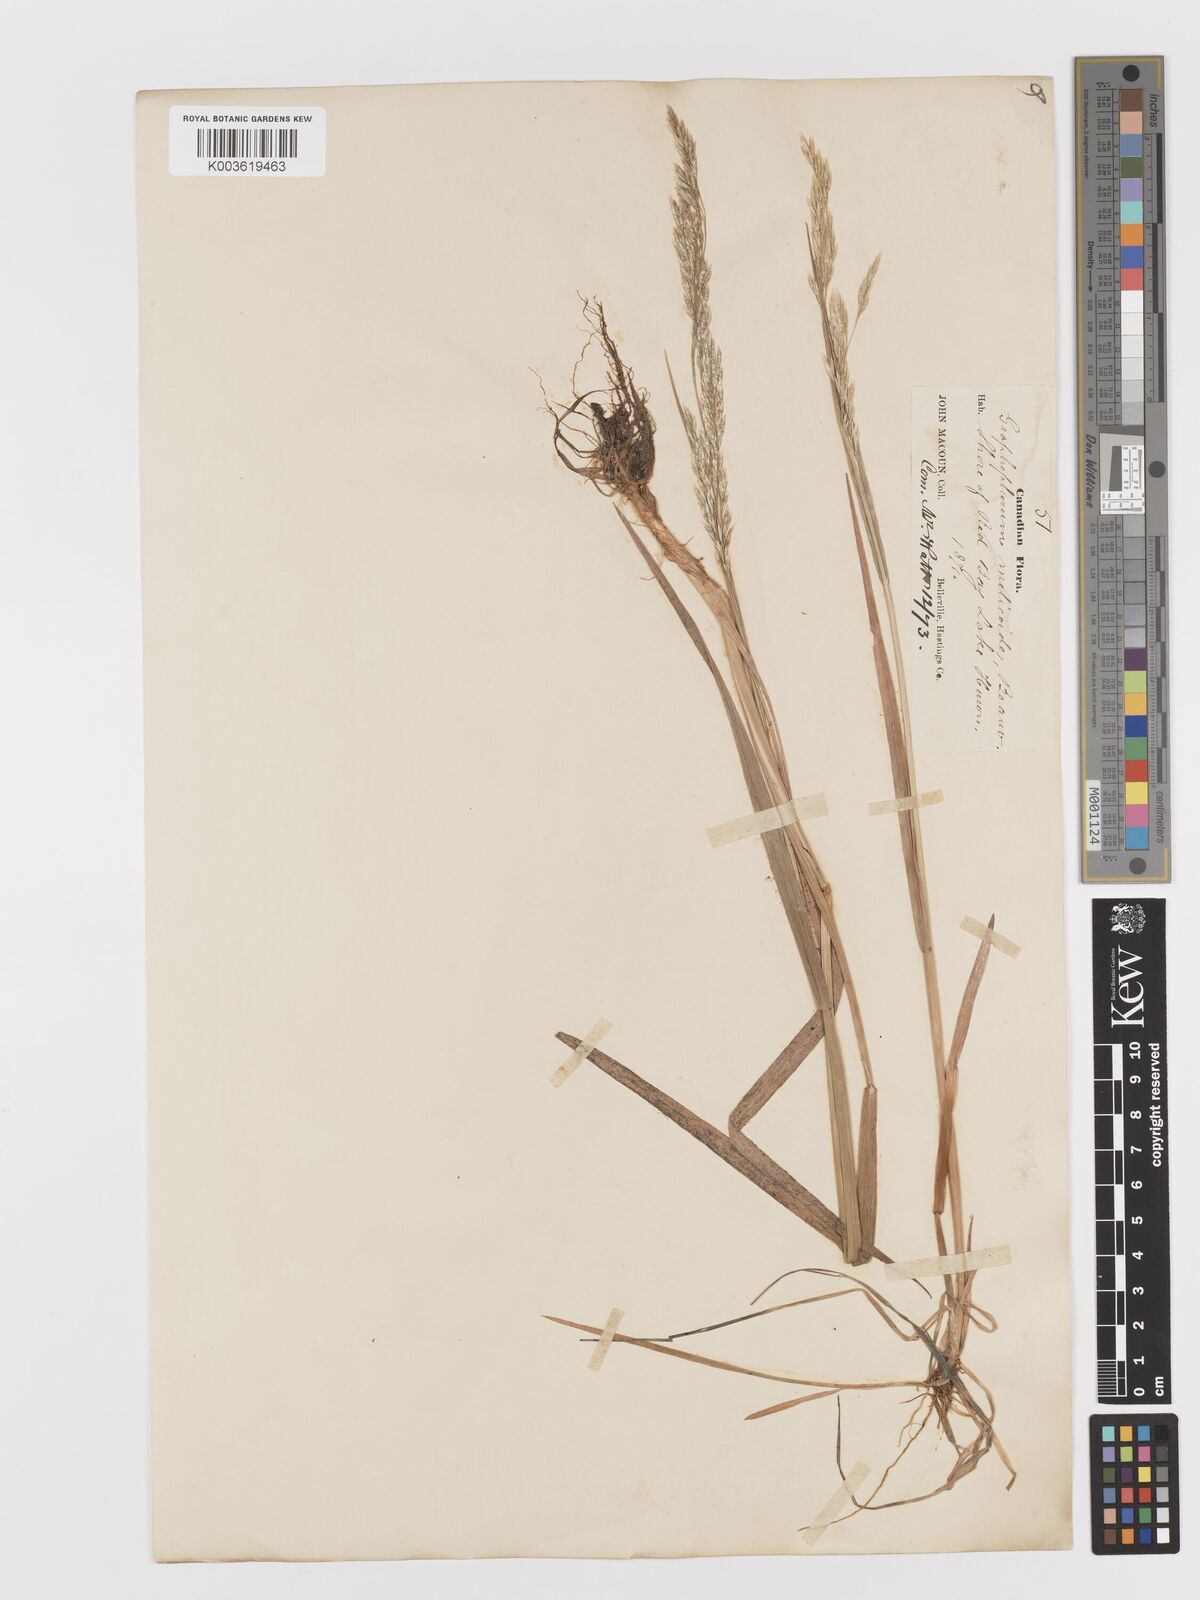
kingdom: Plantae
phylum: Tracheophyta
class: Liliopsida
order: Poales
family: Poaceae
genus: Graphephorum
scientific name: Graphephorum melicoides
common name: False melic
